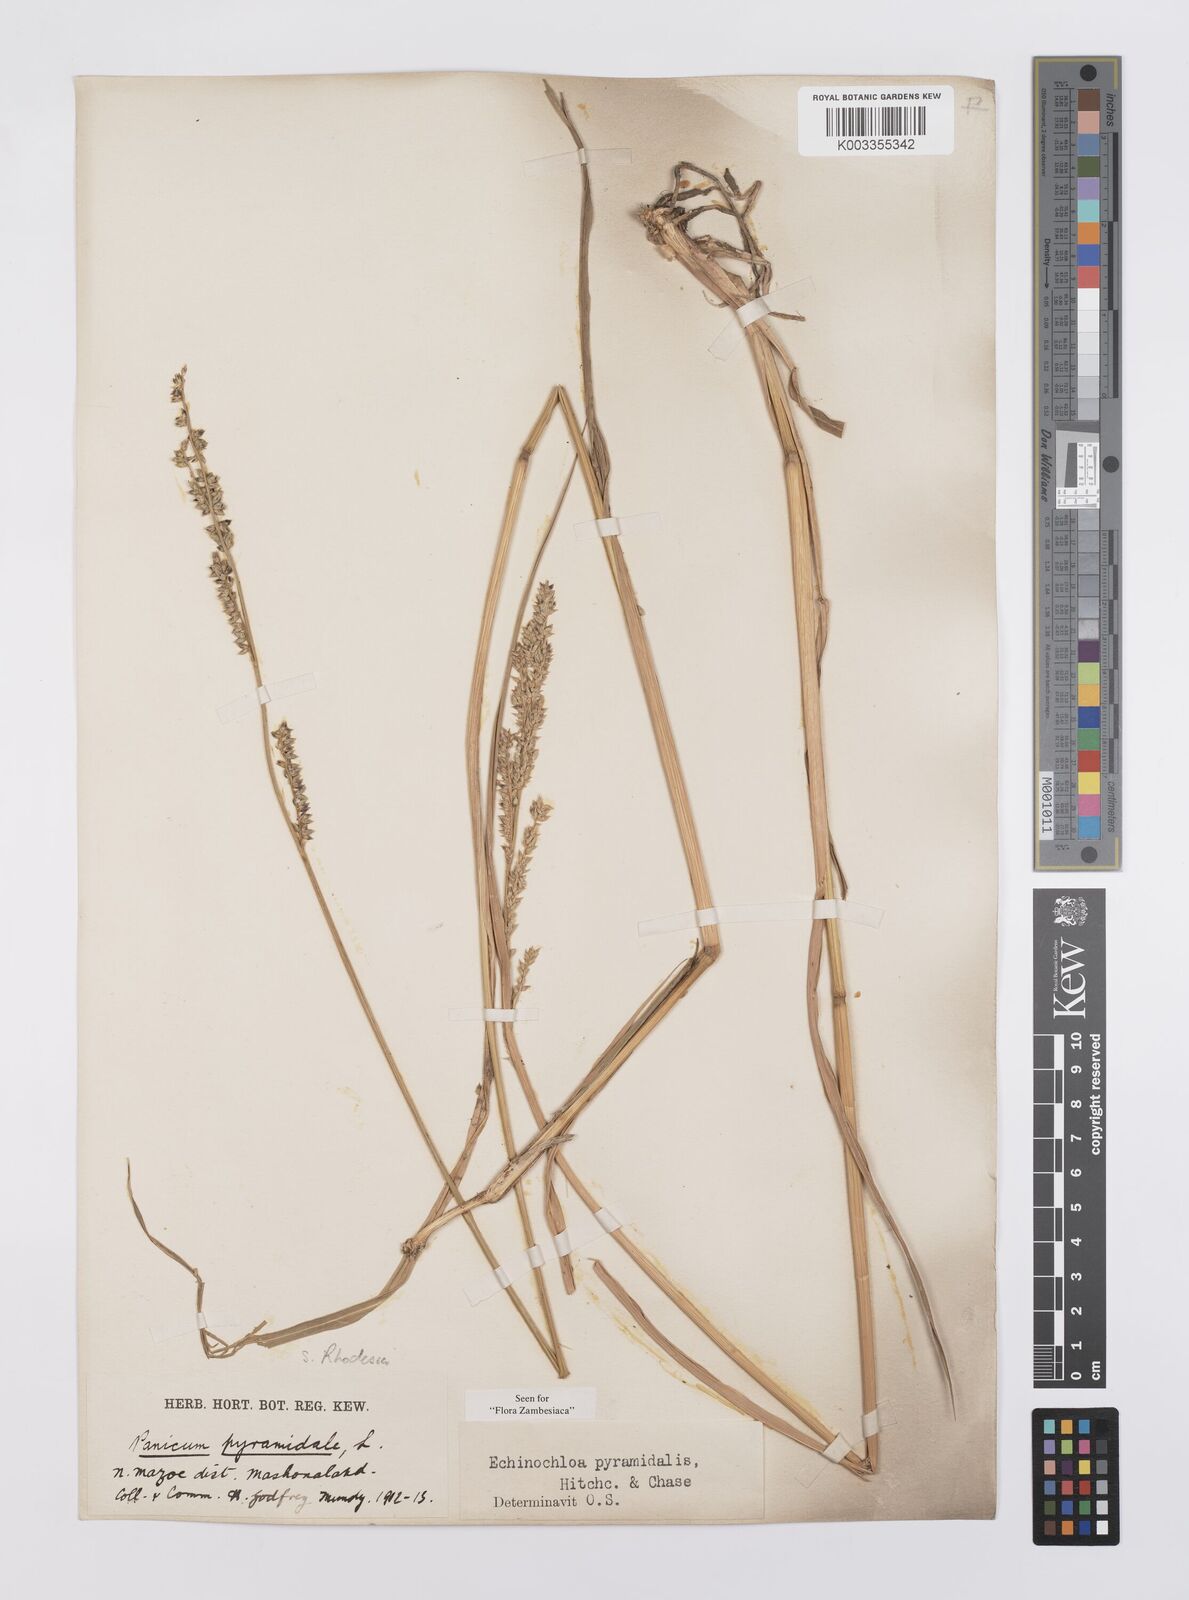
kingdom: Plantae
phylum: Tracheophyta
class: Liliopsida
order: Poales
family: Poaceae
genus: Echinochloa
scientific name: Echinochloa pyramidalis
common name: Antelope grass
